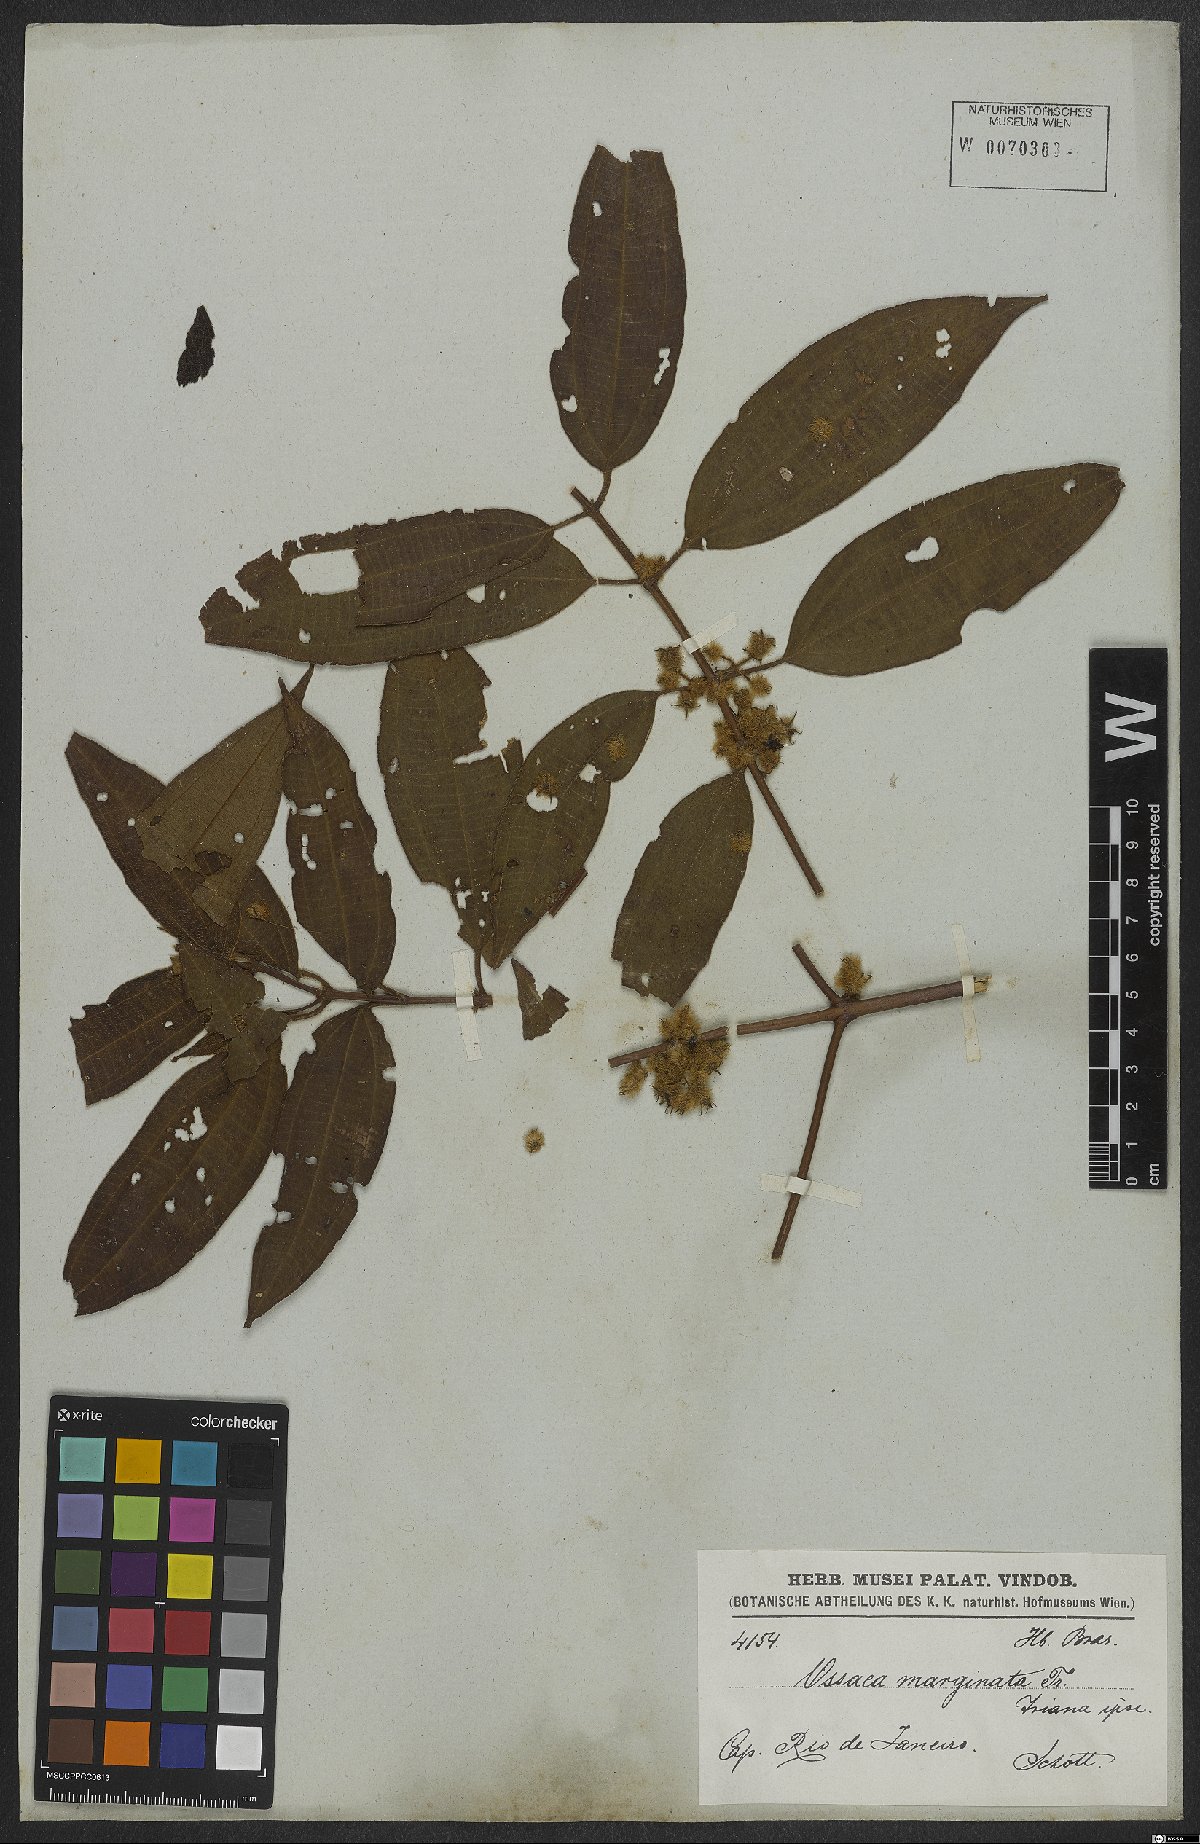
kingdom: Plantae
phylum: Tracheophyta
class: Magnoliopsida
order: Myrtales
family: Melastomataceae
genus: Miconia
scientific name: Miconia leamarginata
